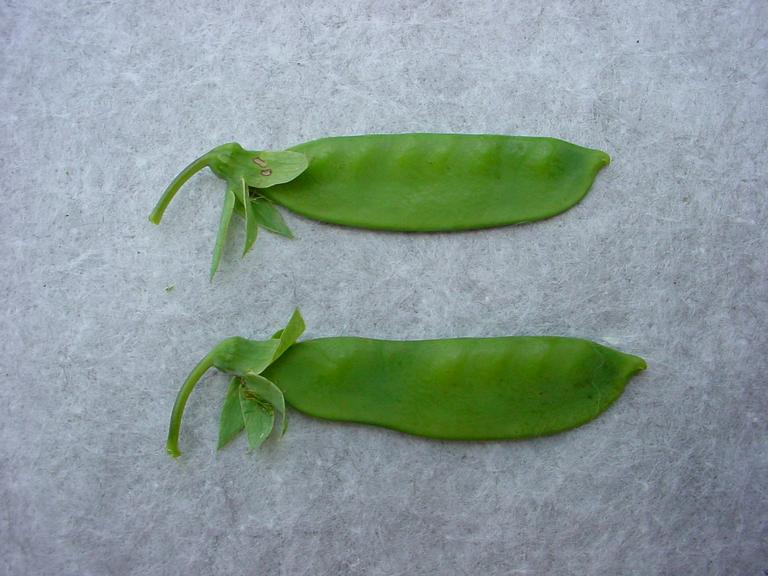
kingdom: Plantae
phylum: Tracheophyta
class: Magnoliopsida
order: Fabales
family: Fabaceae
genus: Lathyrus
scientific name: Lathyrus oleraceus
